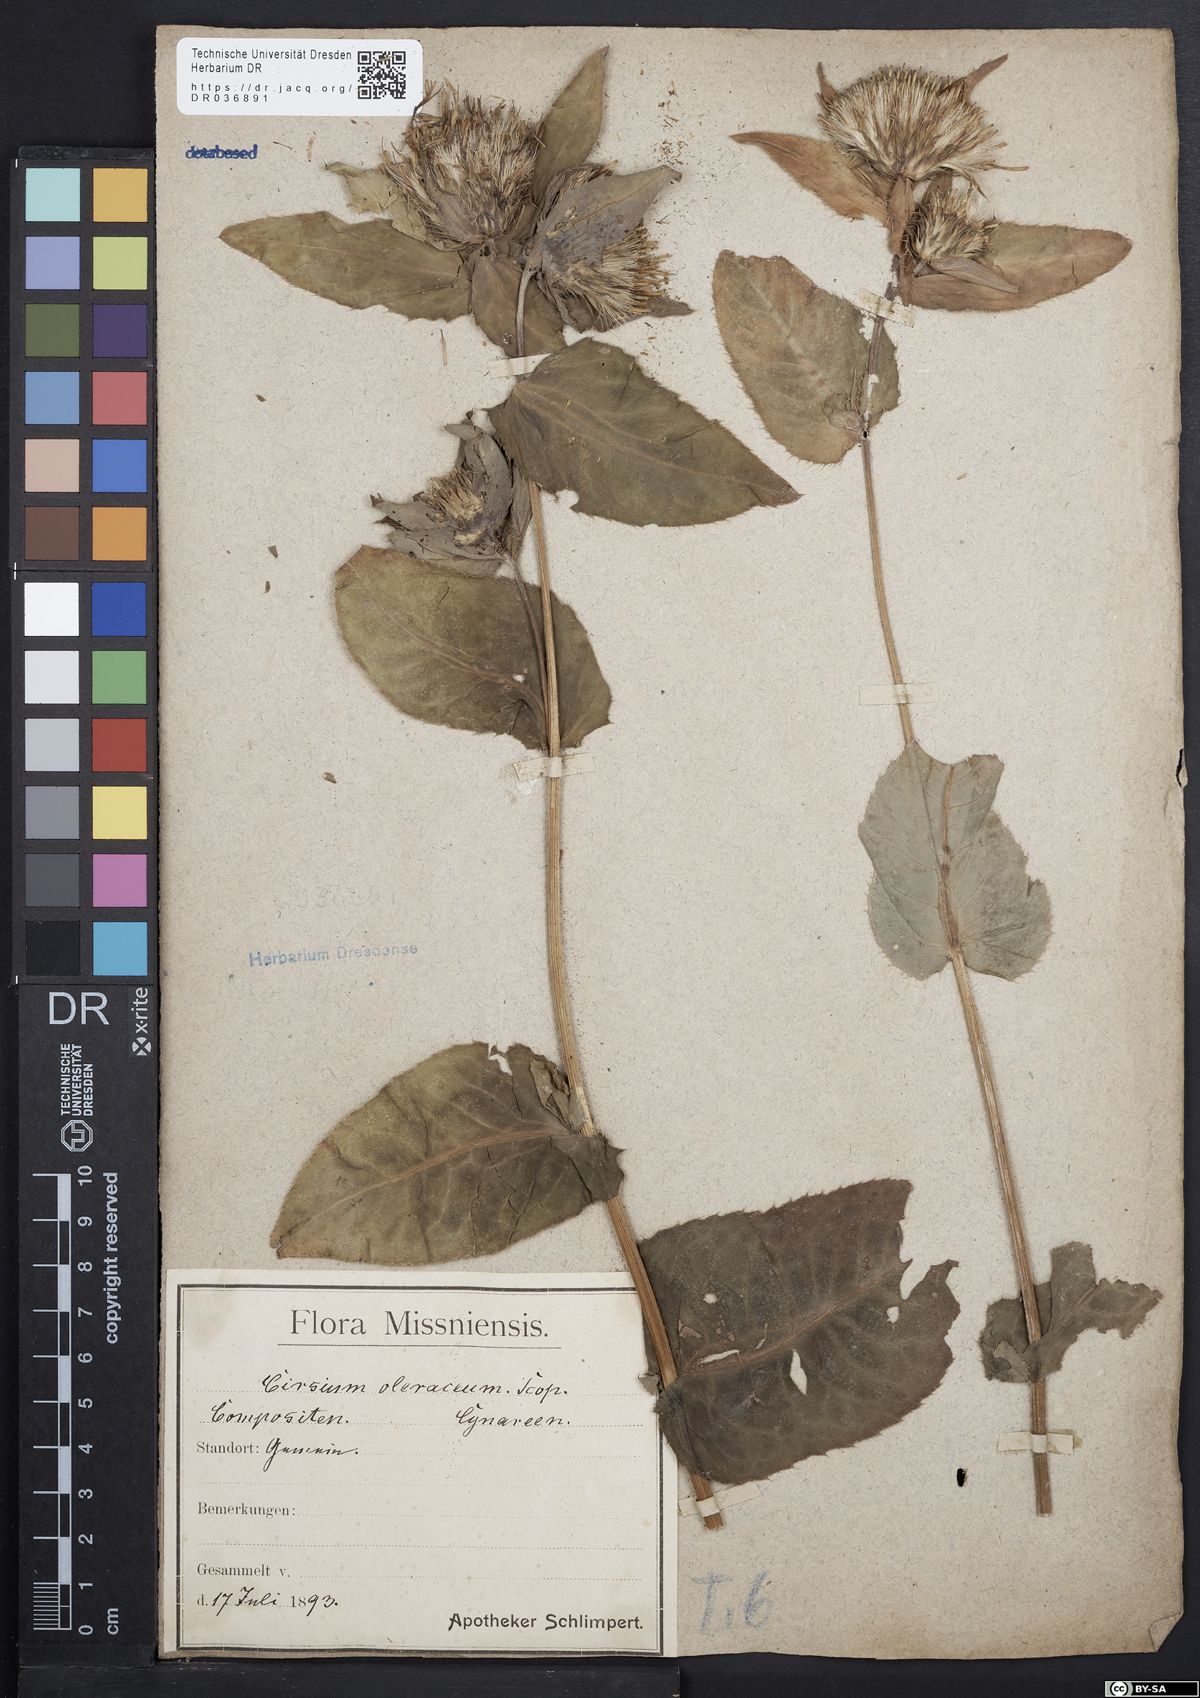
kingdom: Plantae
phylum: Tracheophyta
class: Magnoliopsida
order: Asterales
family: Asteraceae
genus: Cirsium
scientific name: Cirsium oleraceum
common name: Cabbage thistle
